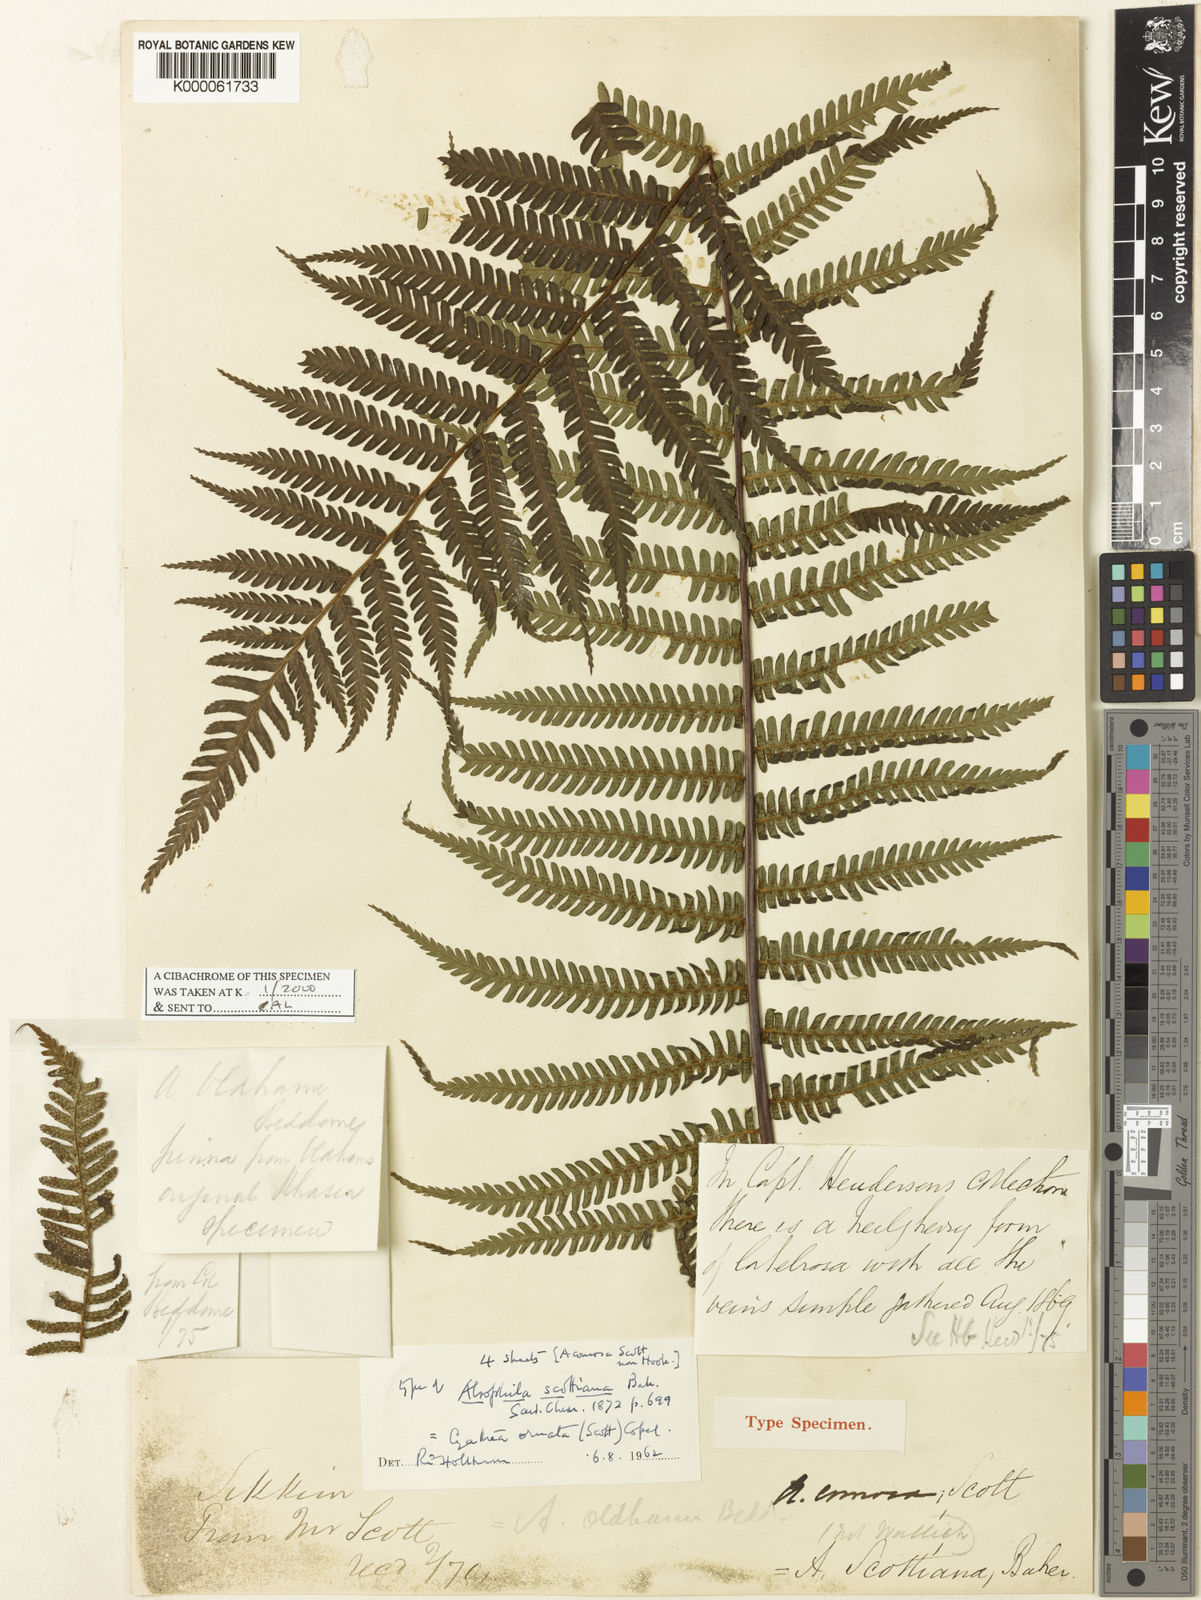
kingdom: Plantae
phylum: Tracheophyta
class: Polypodiopsida
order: Cyatheales
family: Cyatheaceae
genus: Gymnosphaera
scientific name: Gymnosphaera khasyana
